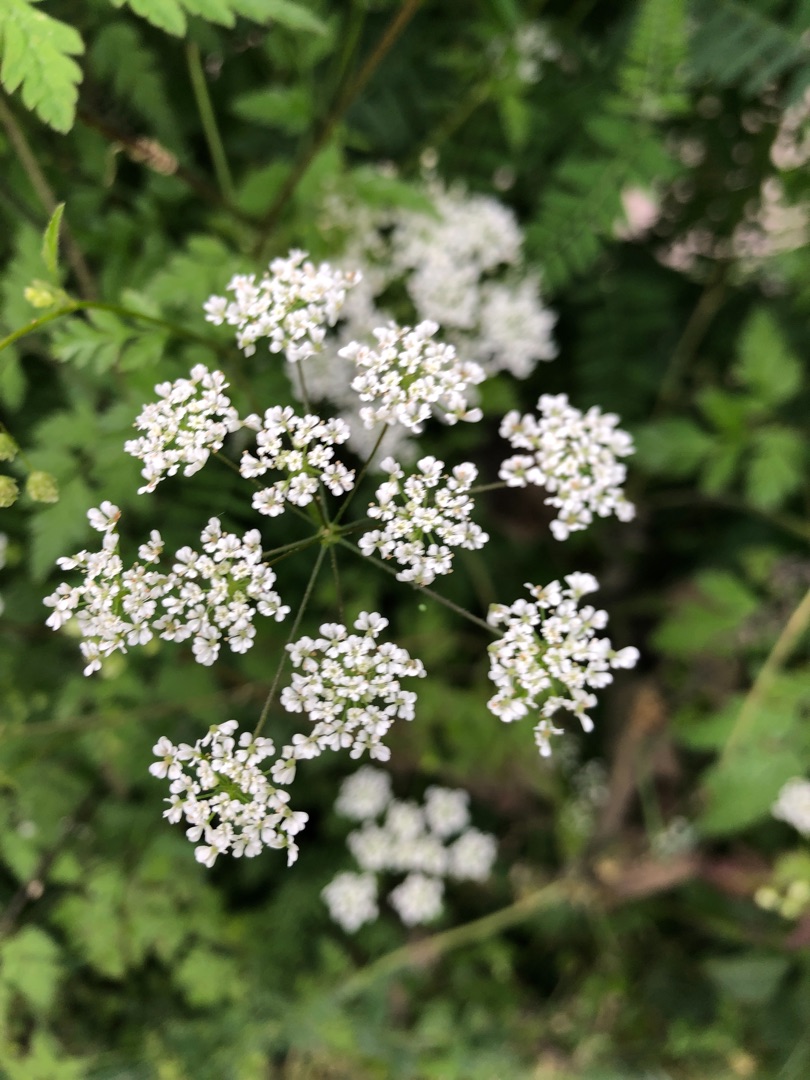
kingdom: Plantae
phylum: Tracheophyta
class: Magnoliopsida
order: Apiales
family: Apiaceae
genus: Anthriscus
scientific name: Anthriscus sylvestris
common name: Vild kørvel
